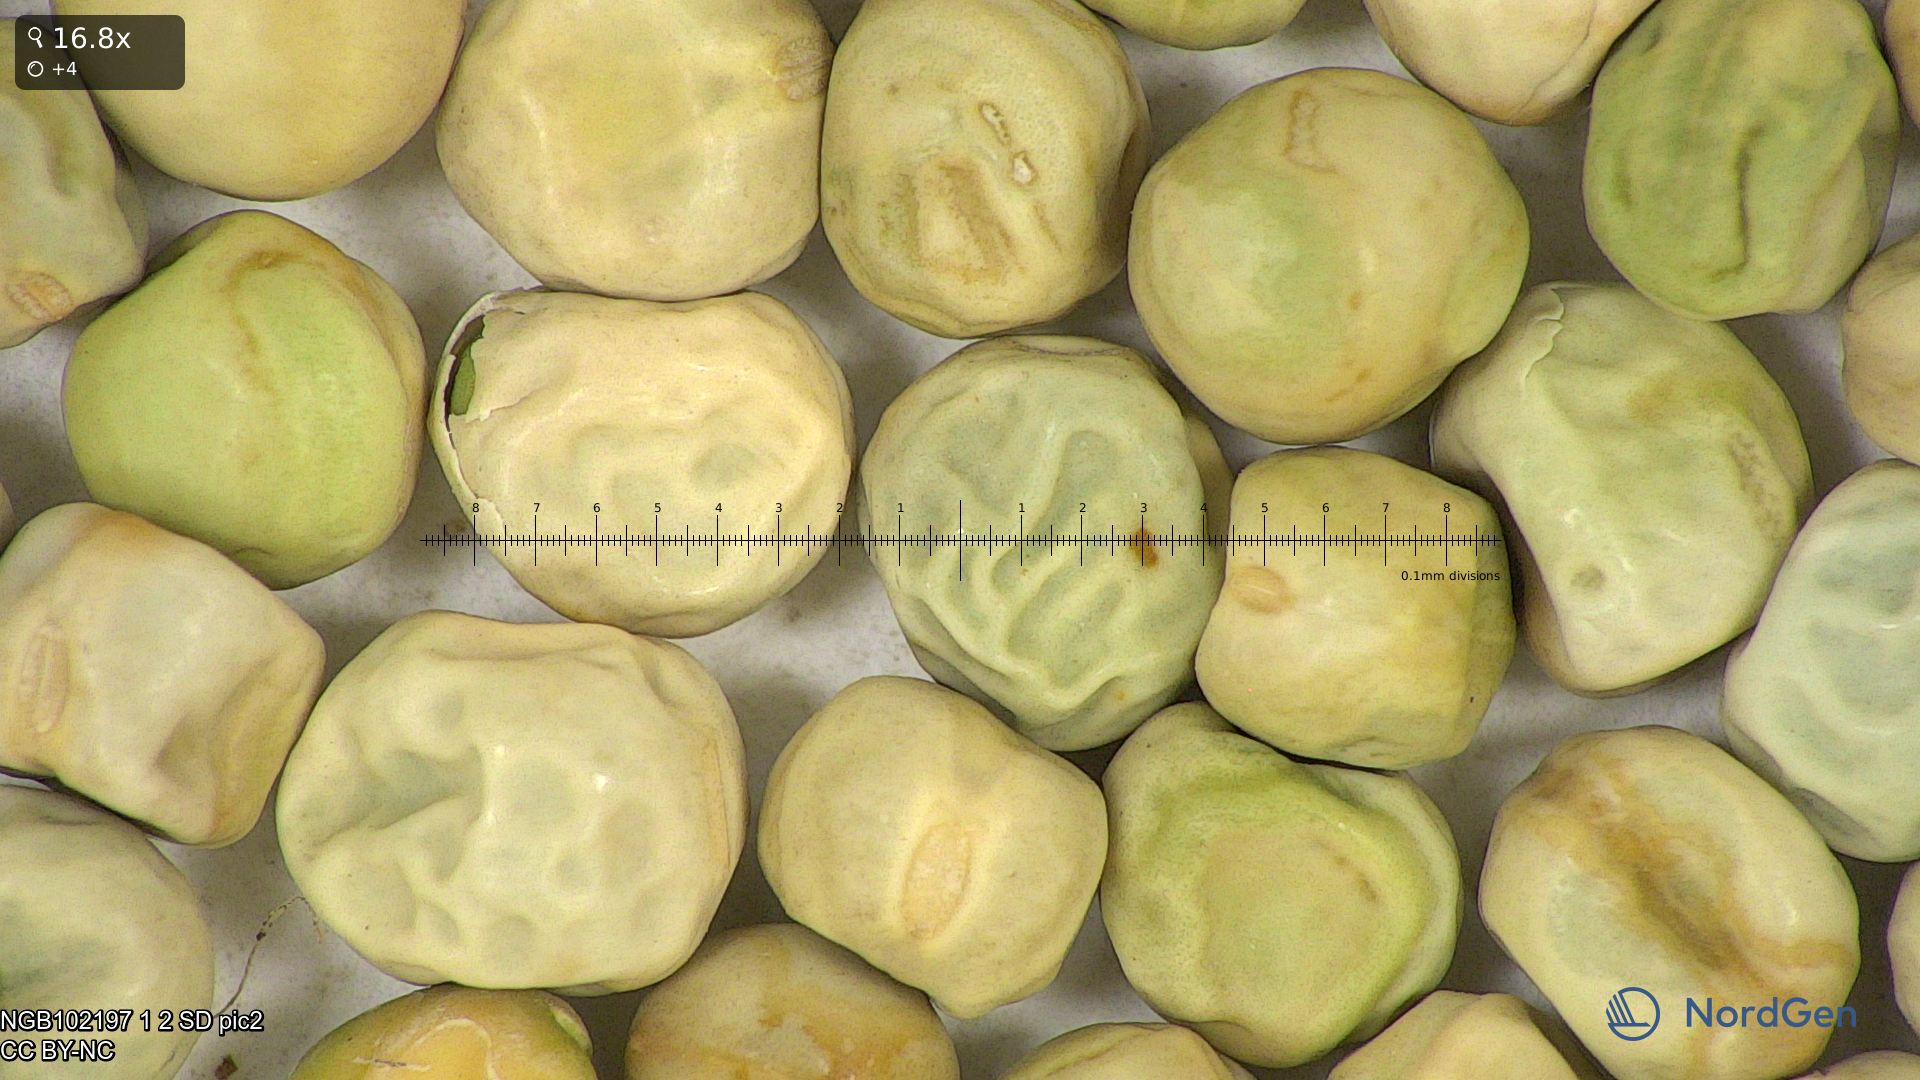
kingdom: Plantae
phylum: Tracheophyta
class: Magnoliopsida
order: Fabales
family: Fabaceae
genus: Lathyrus
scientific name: Lathyrus oleraceus
